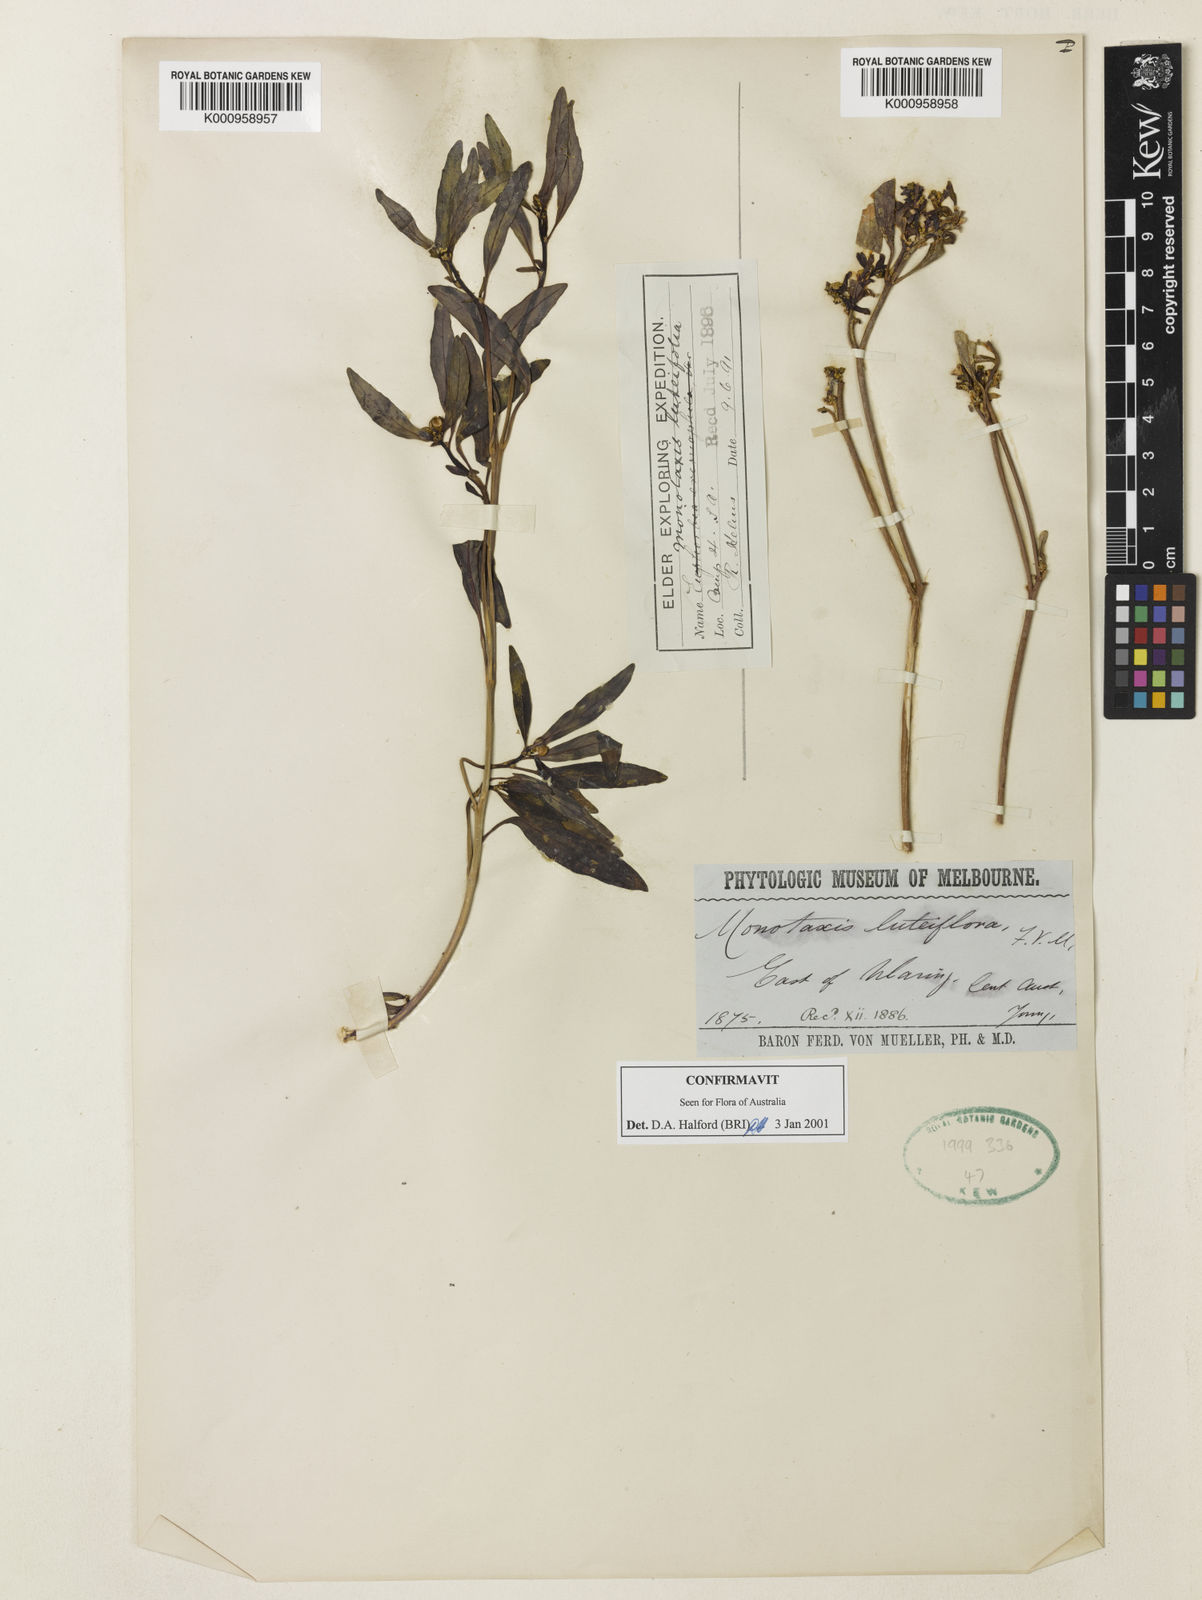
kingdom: Plantae
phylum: Tracheophyta
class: Magnoliopsida
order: Malpighiales
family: Euphorbiaceae
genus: Monotaxis
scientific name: Monotaxis luteiflora
